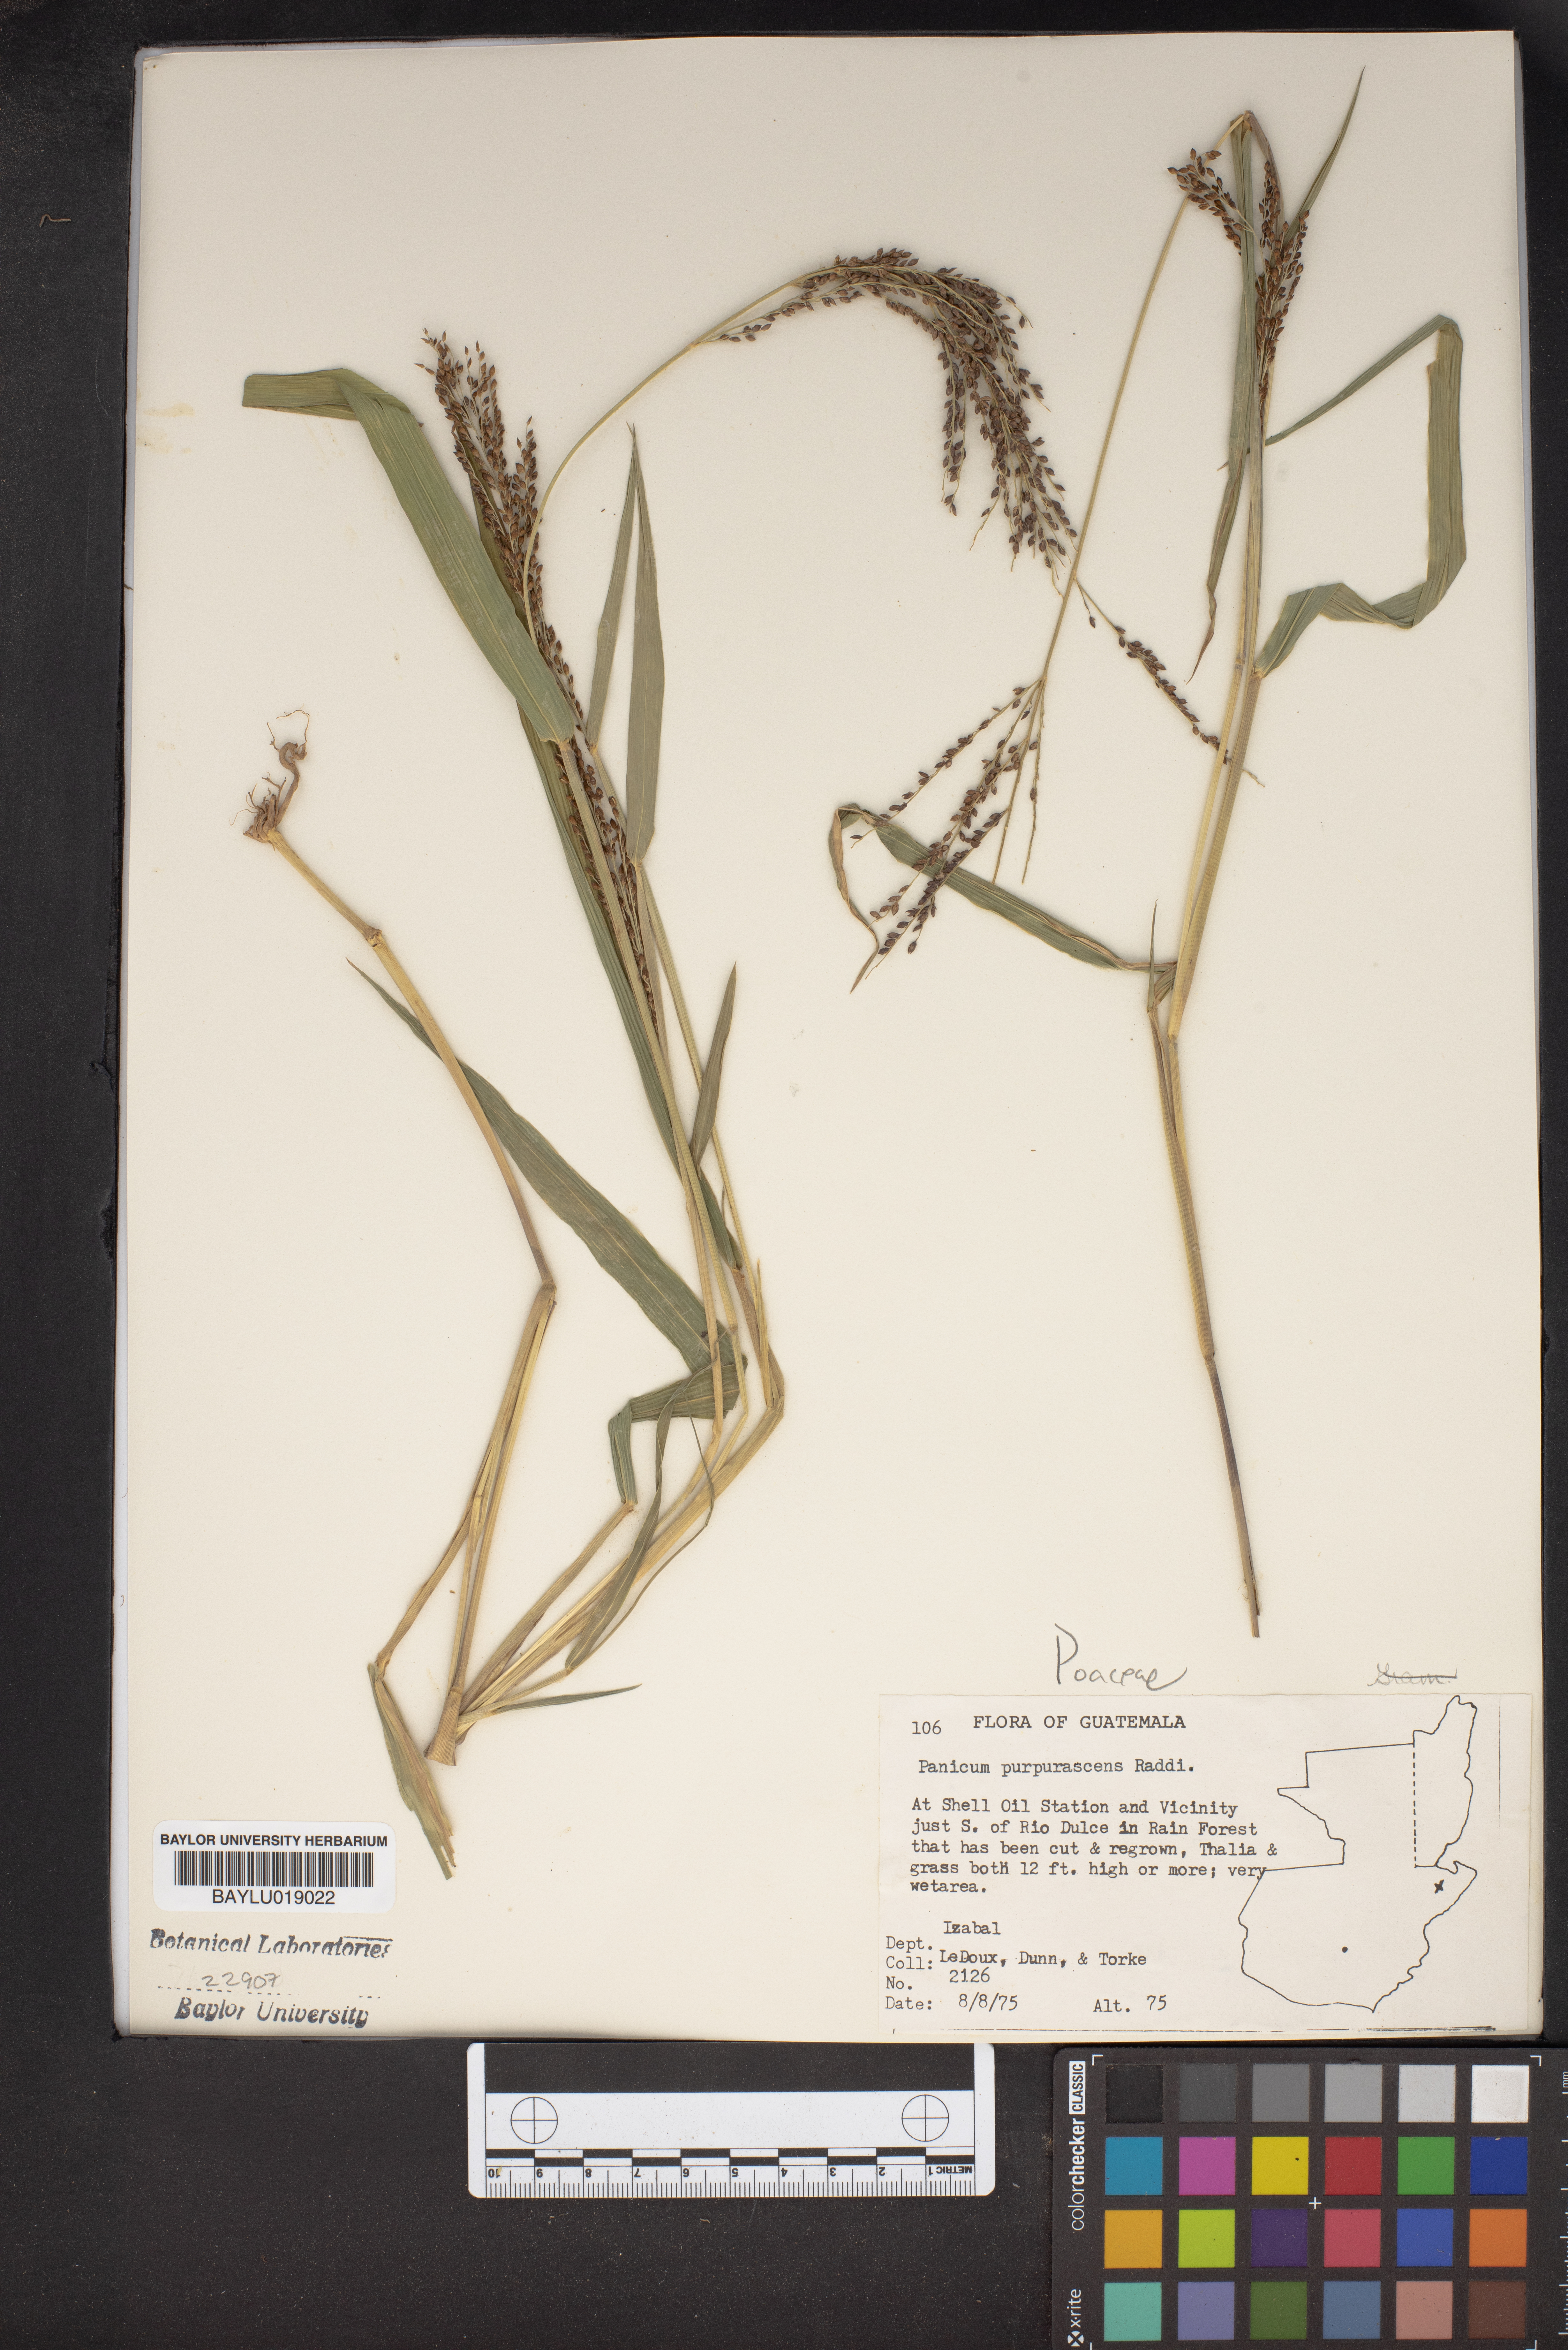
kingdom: Plantae
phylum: Tracheophyta
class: Liliopsida
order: Poales
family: Poaceae
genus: Panicum
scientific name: Panicum fluviicola
